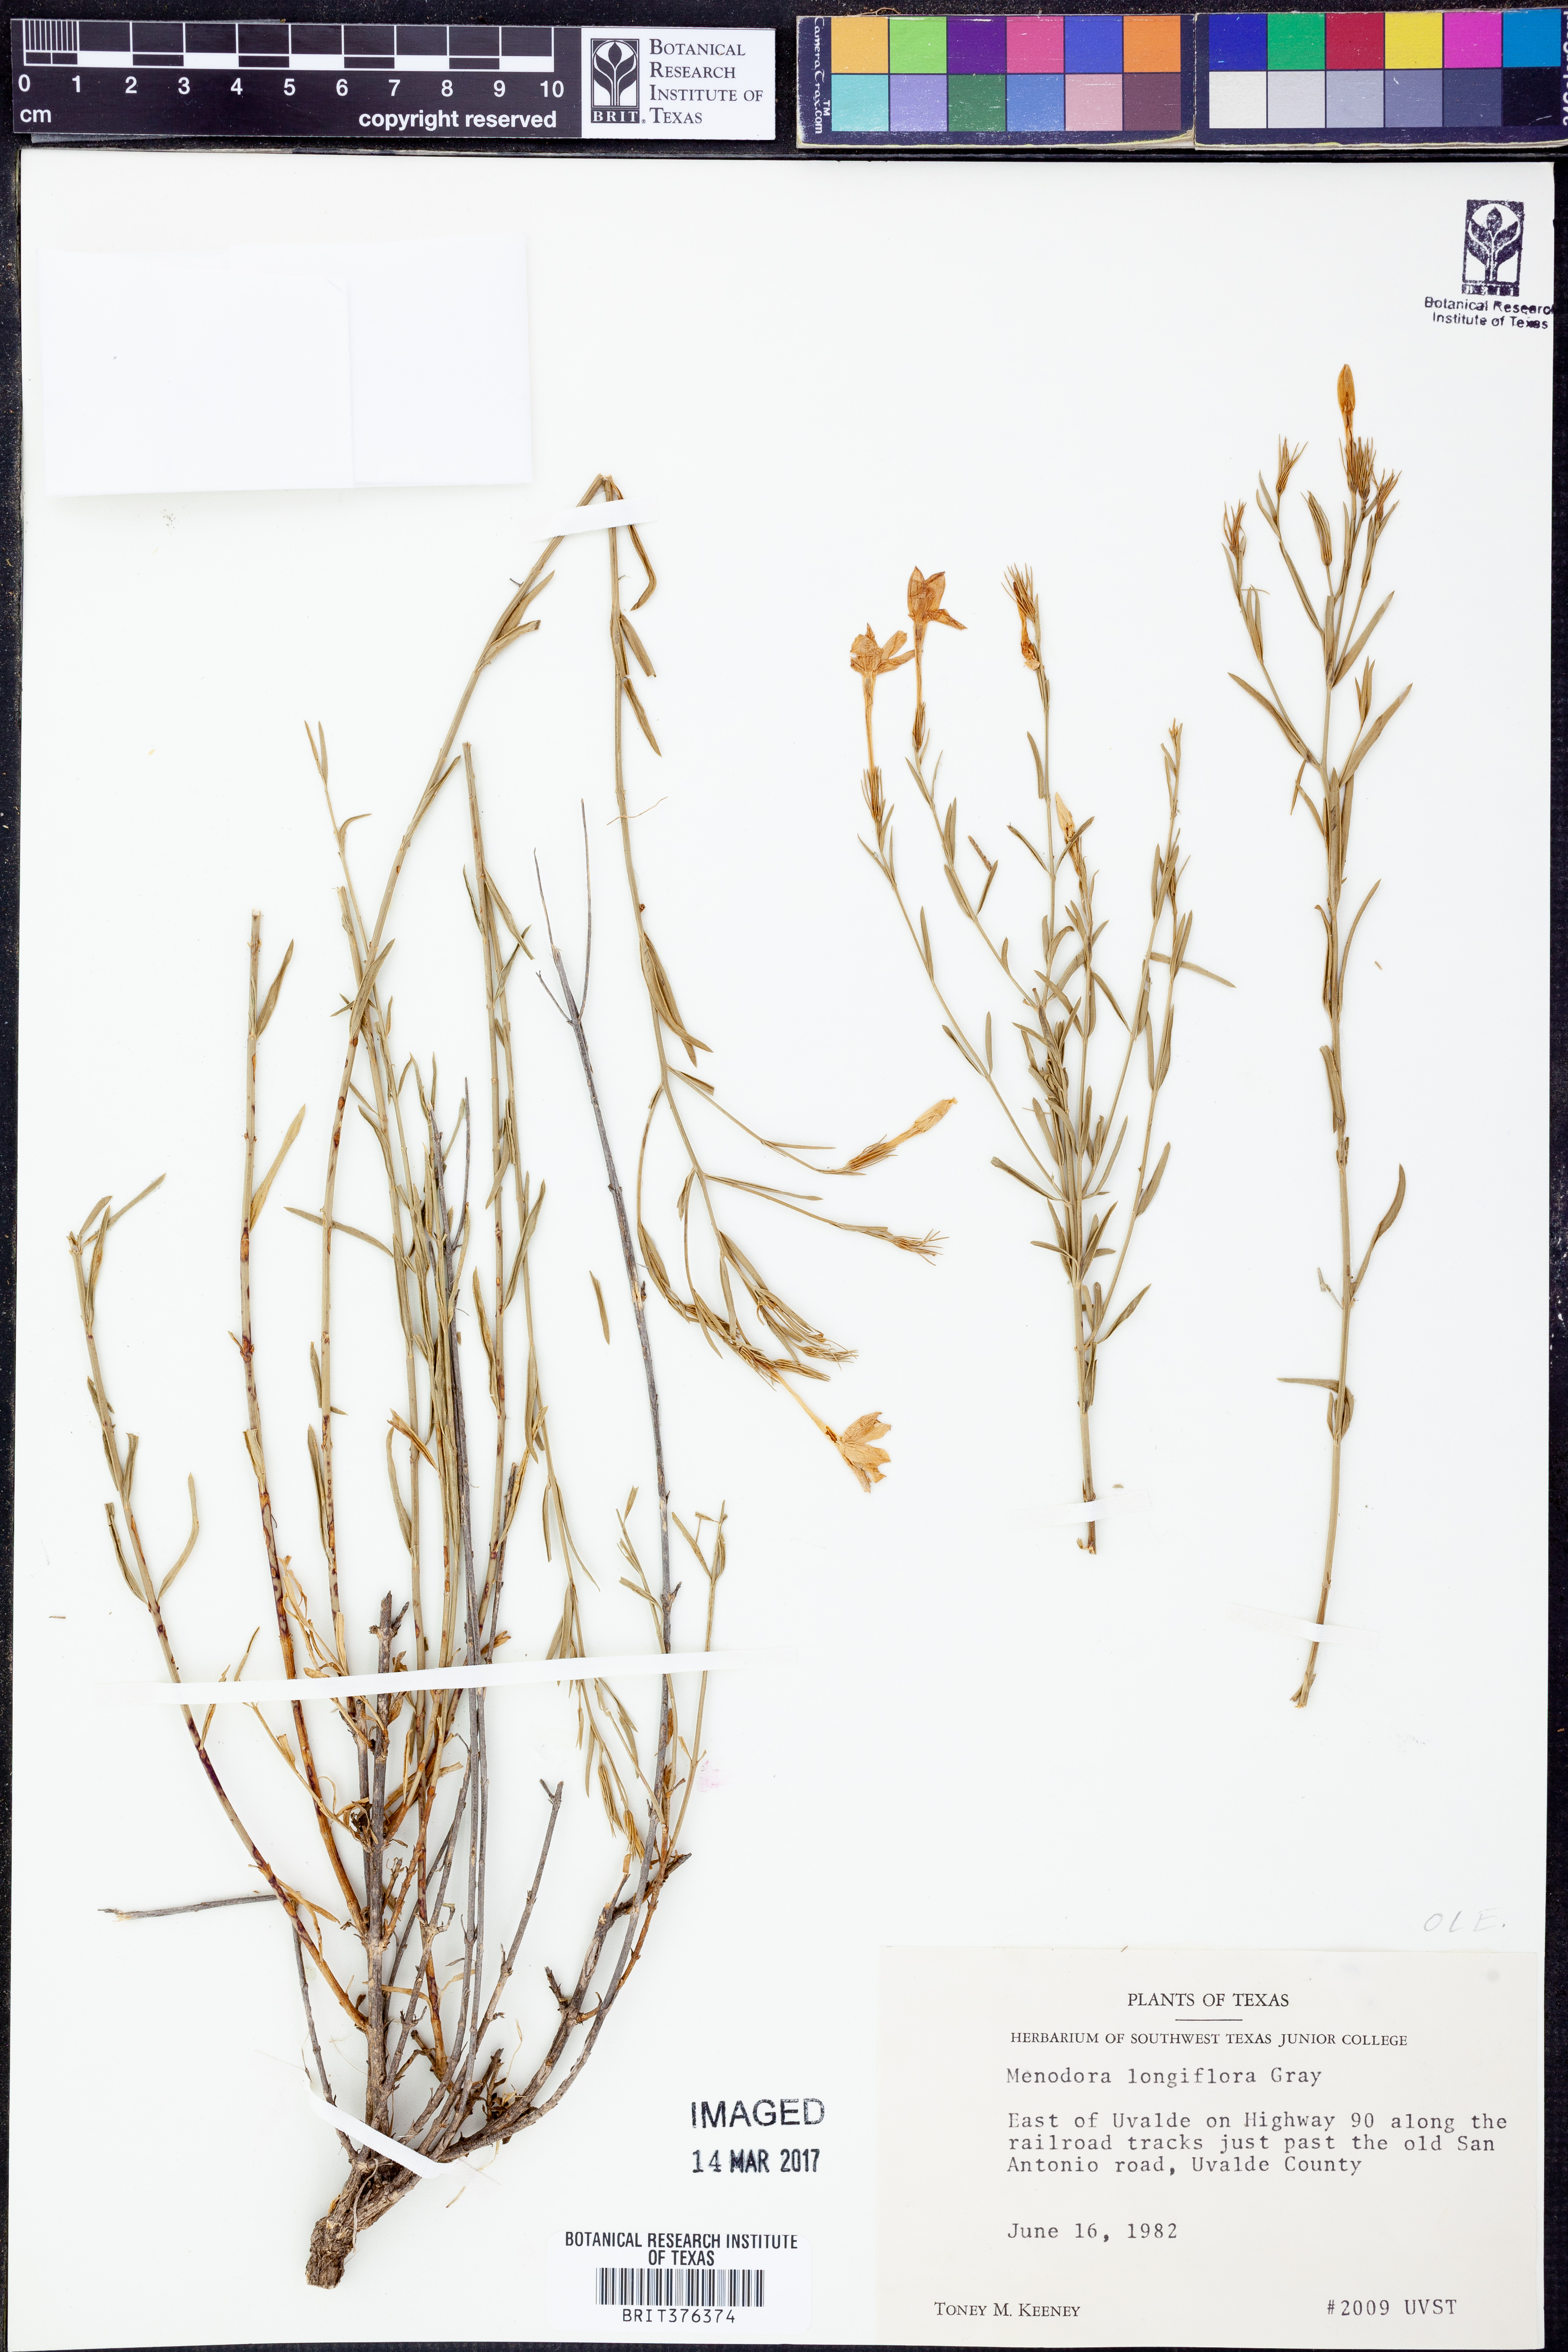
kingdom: Plantae
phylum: Tracheophyta
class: Magnoliopsida
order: Lamiales
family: Oleaceae
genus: Menodora
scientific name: Menodora longiflora
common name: Showy menodora
